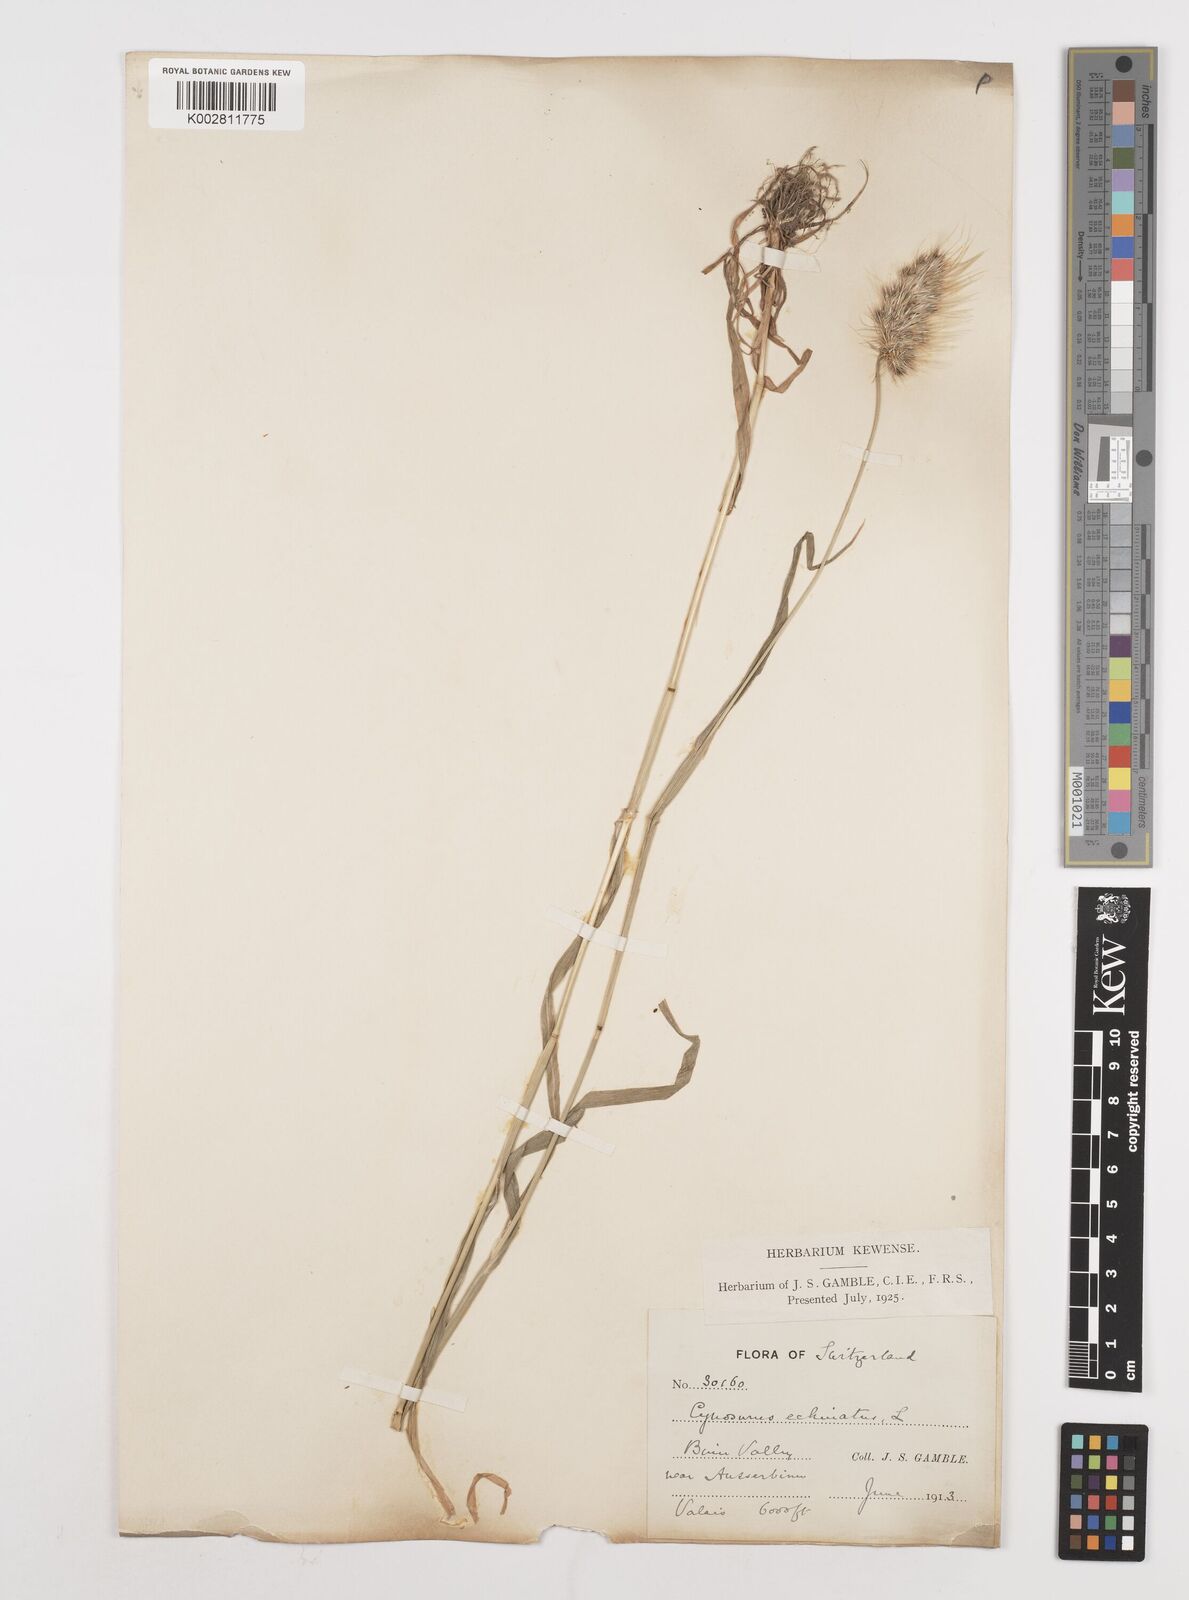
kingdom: Plantae
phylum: Tracheophyta
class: Liliopsida
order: Poales
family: Poaceae
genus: Cynosurus
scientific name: Cynosurus echinatus
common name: Rough dog's-tail
